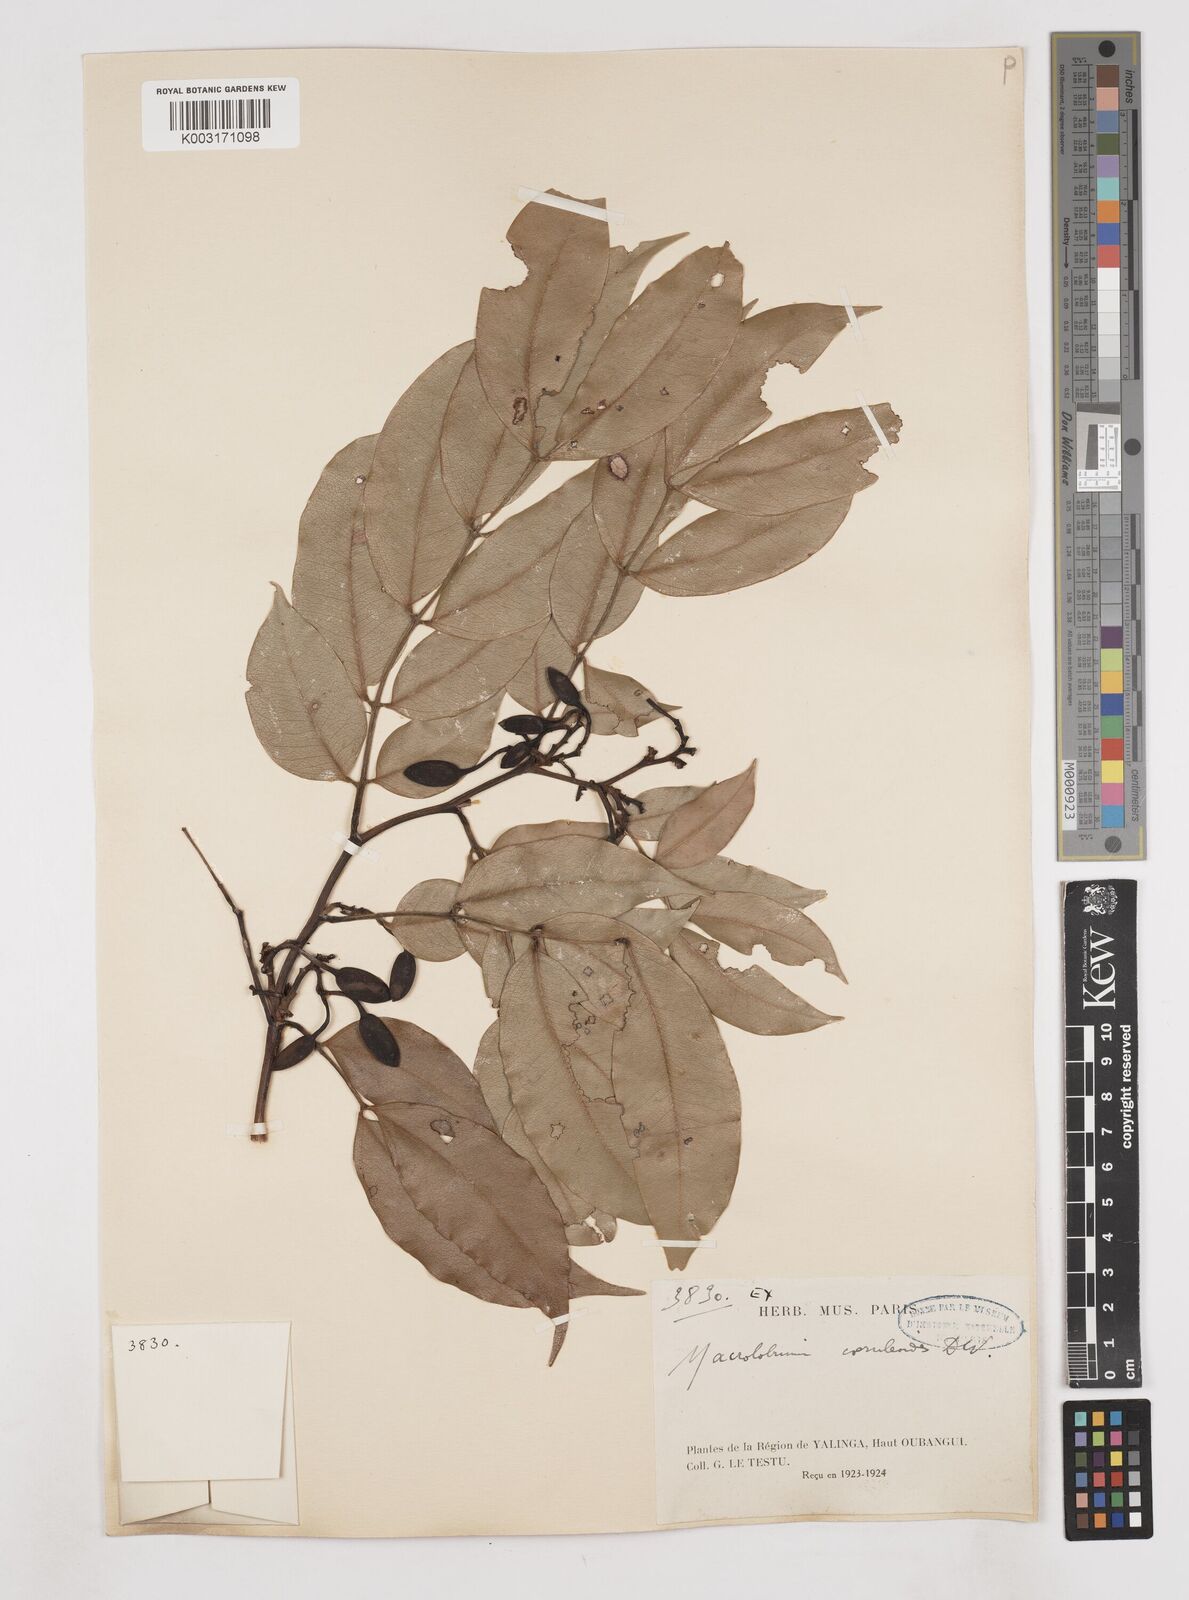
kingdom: Plantae
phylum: Tracheophyta
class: Magnoliopsida
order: Fabales
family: Fabaceae
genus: Paramacrolobium
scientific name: Paramacrolobium coeruleum
